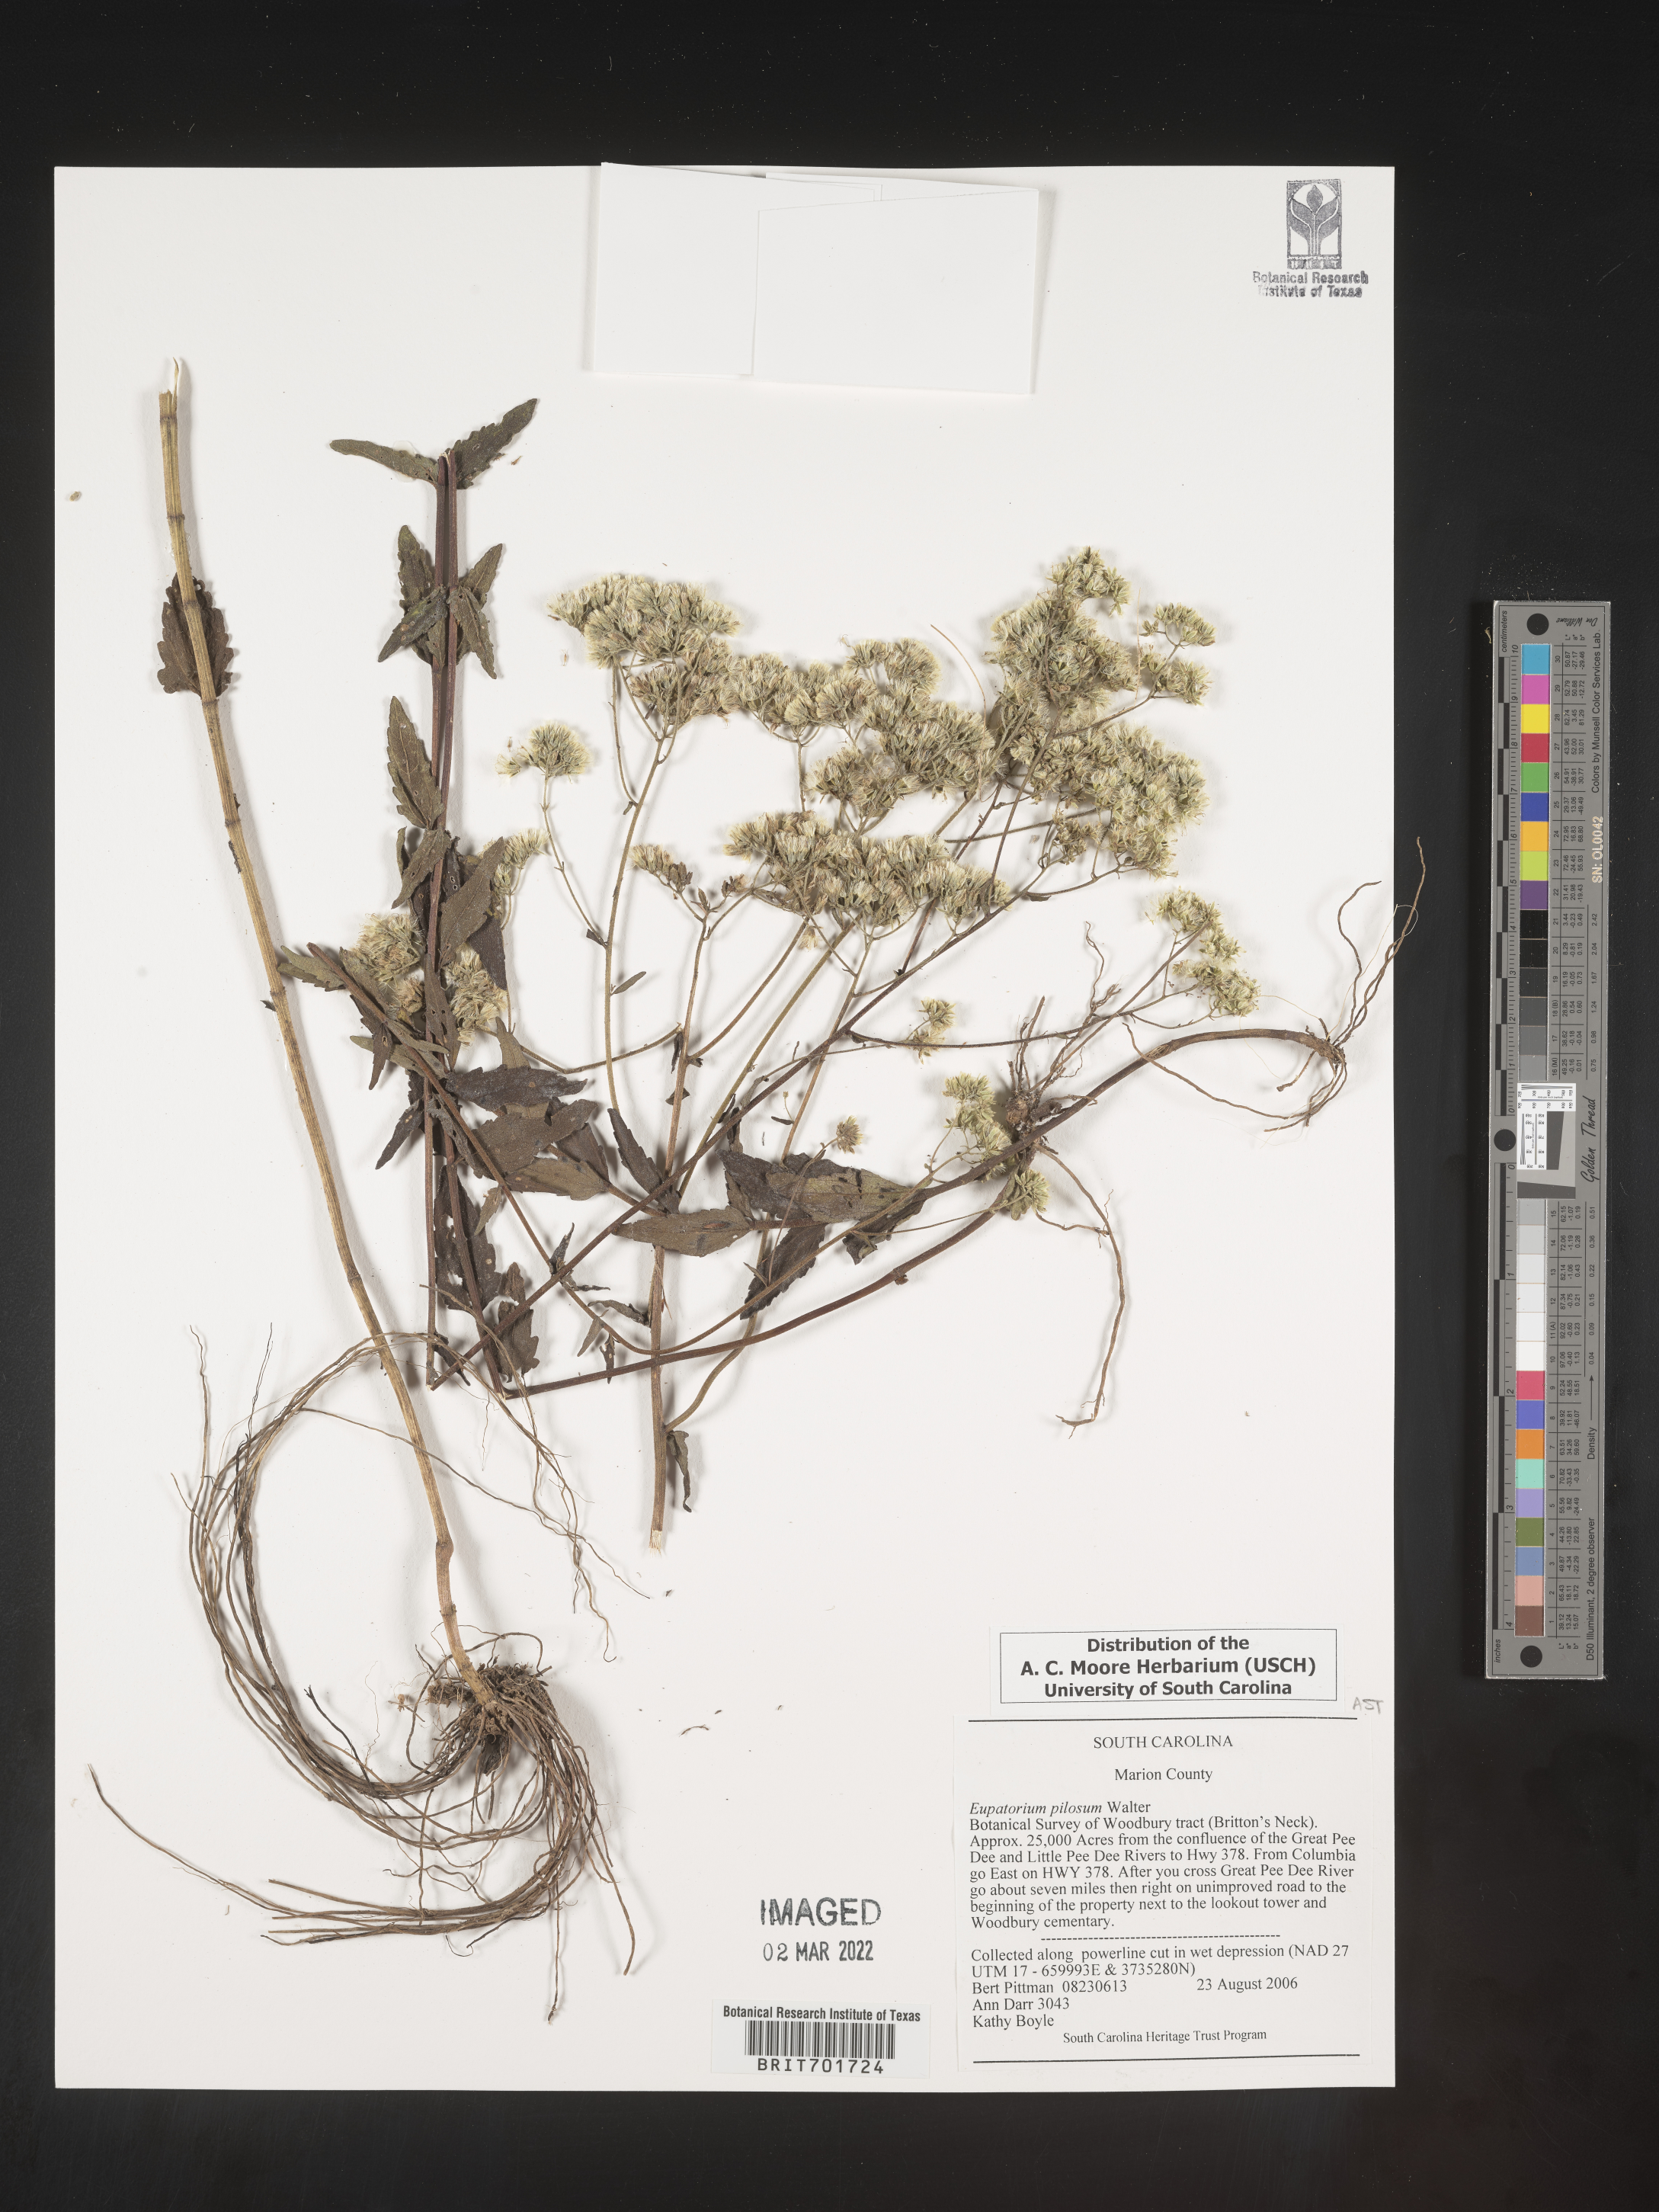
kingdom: Plantae
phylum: Tracheophyta
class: Magnoliopsida
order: Asterales
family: Asteraceae
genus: Eupatorium
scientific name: Eupatorium pilosum
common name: Rough boneset
